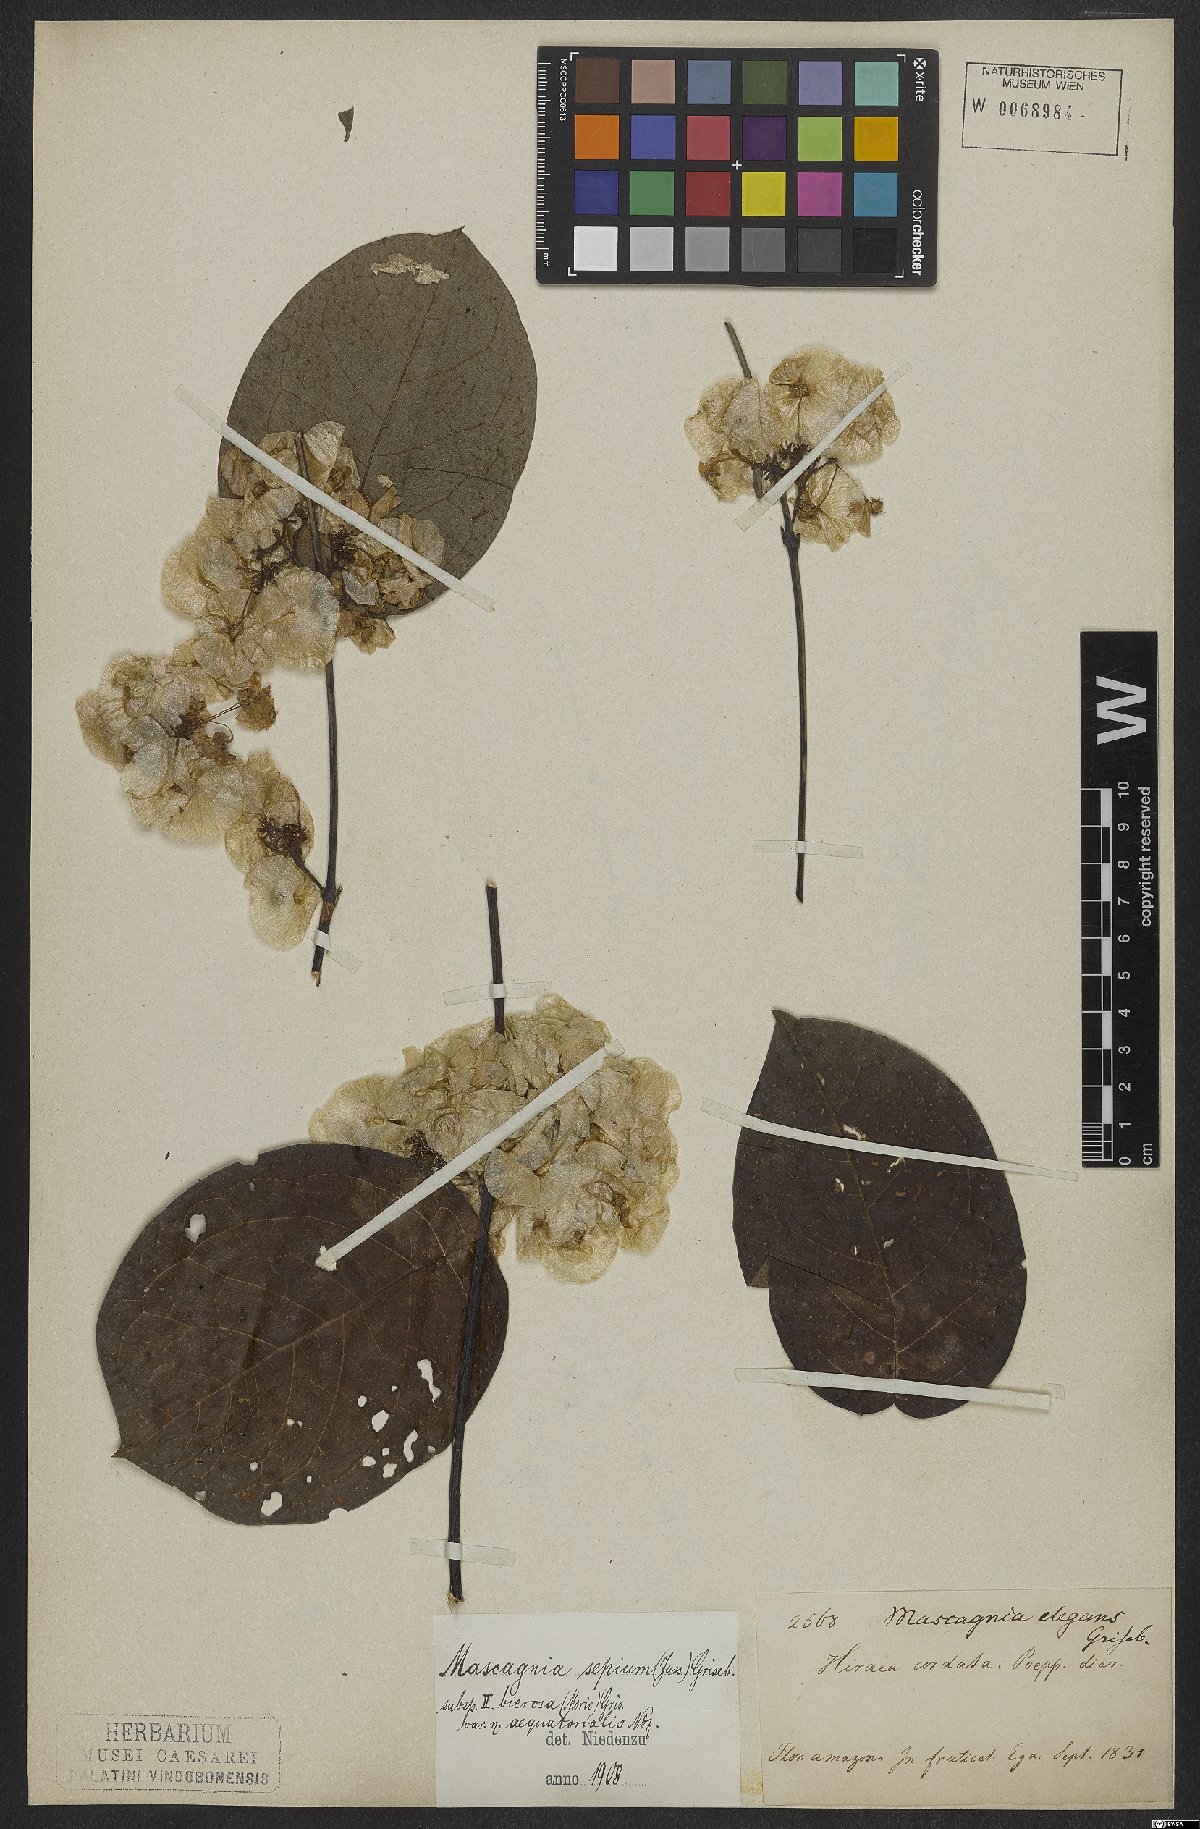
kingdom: Plantae
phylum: Tracheophyta
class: Magnoliopsida
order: Malpighiales
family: Malpighiaceae
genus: Mascagnia
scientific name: Mascagnia bierosa
